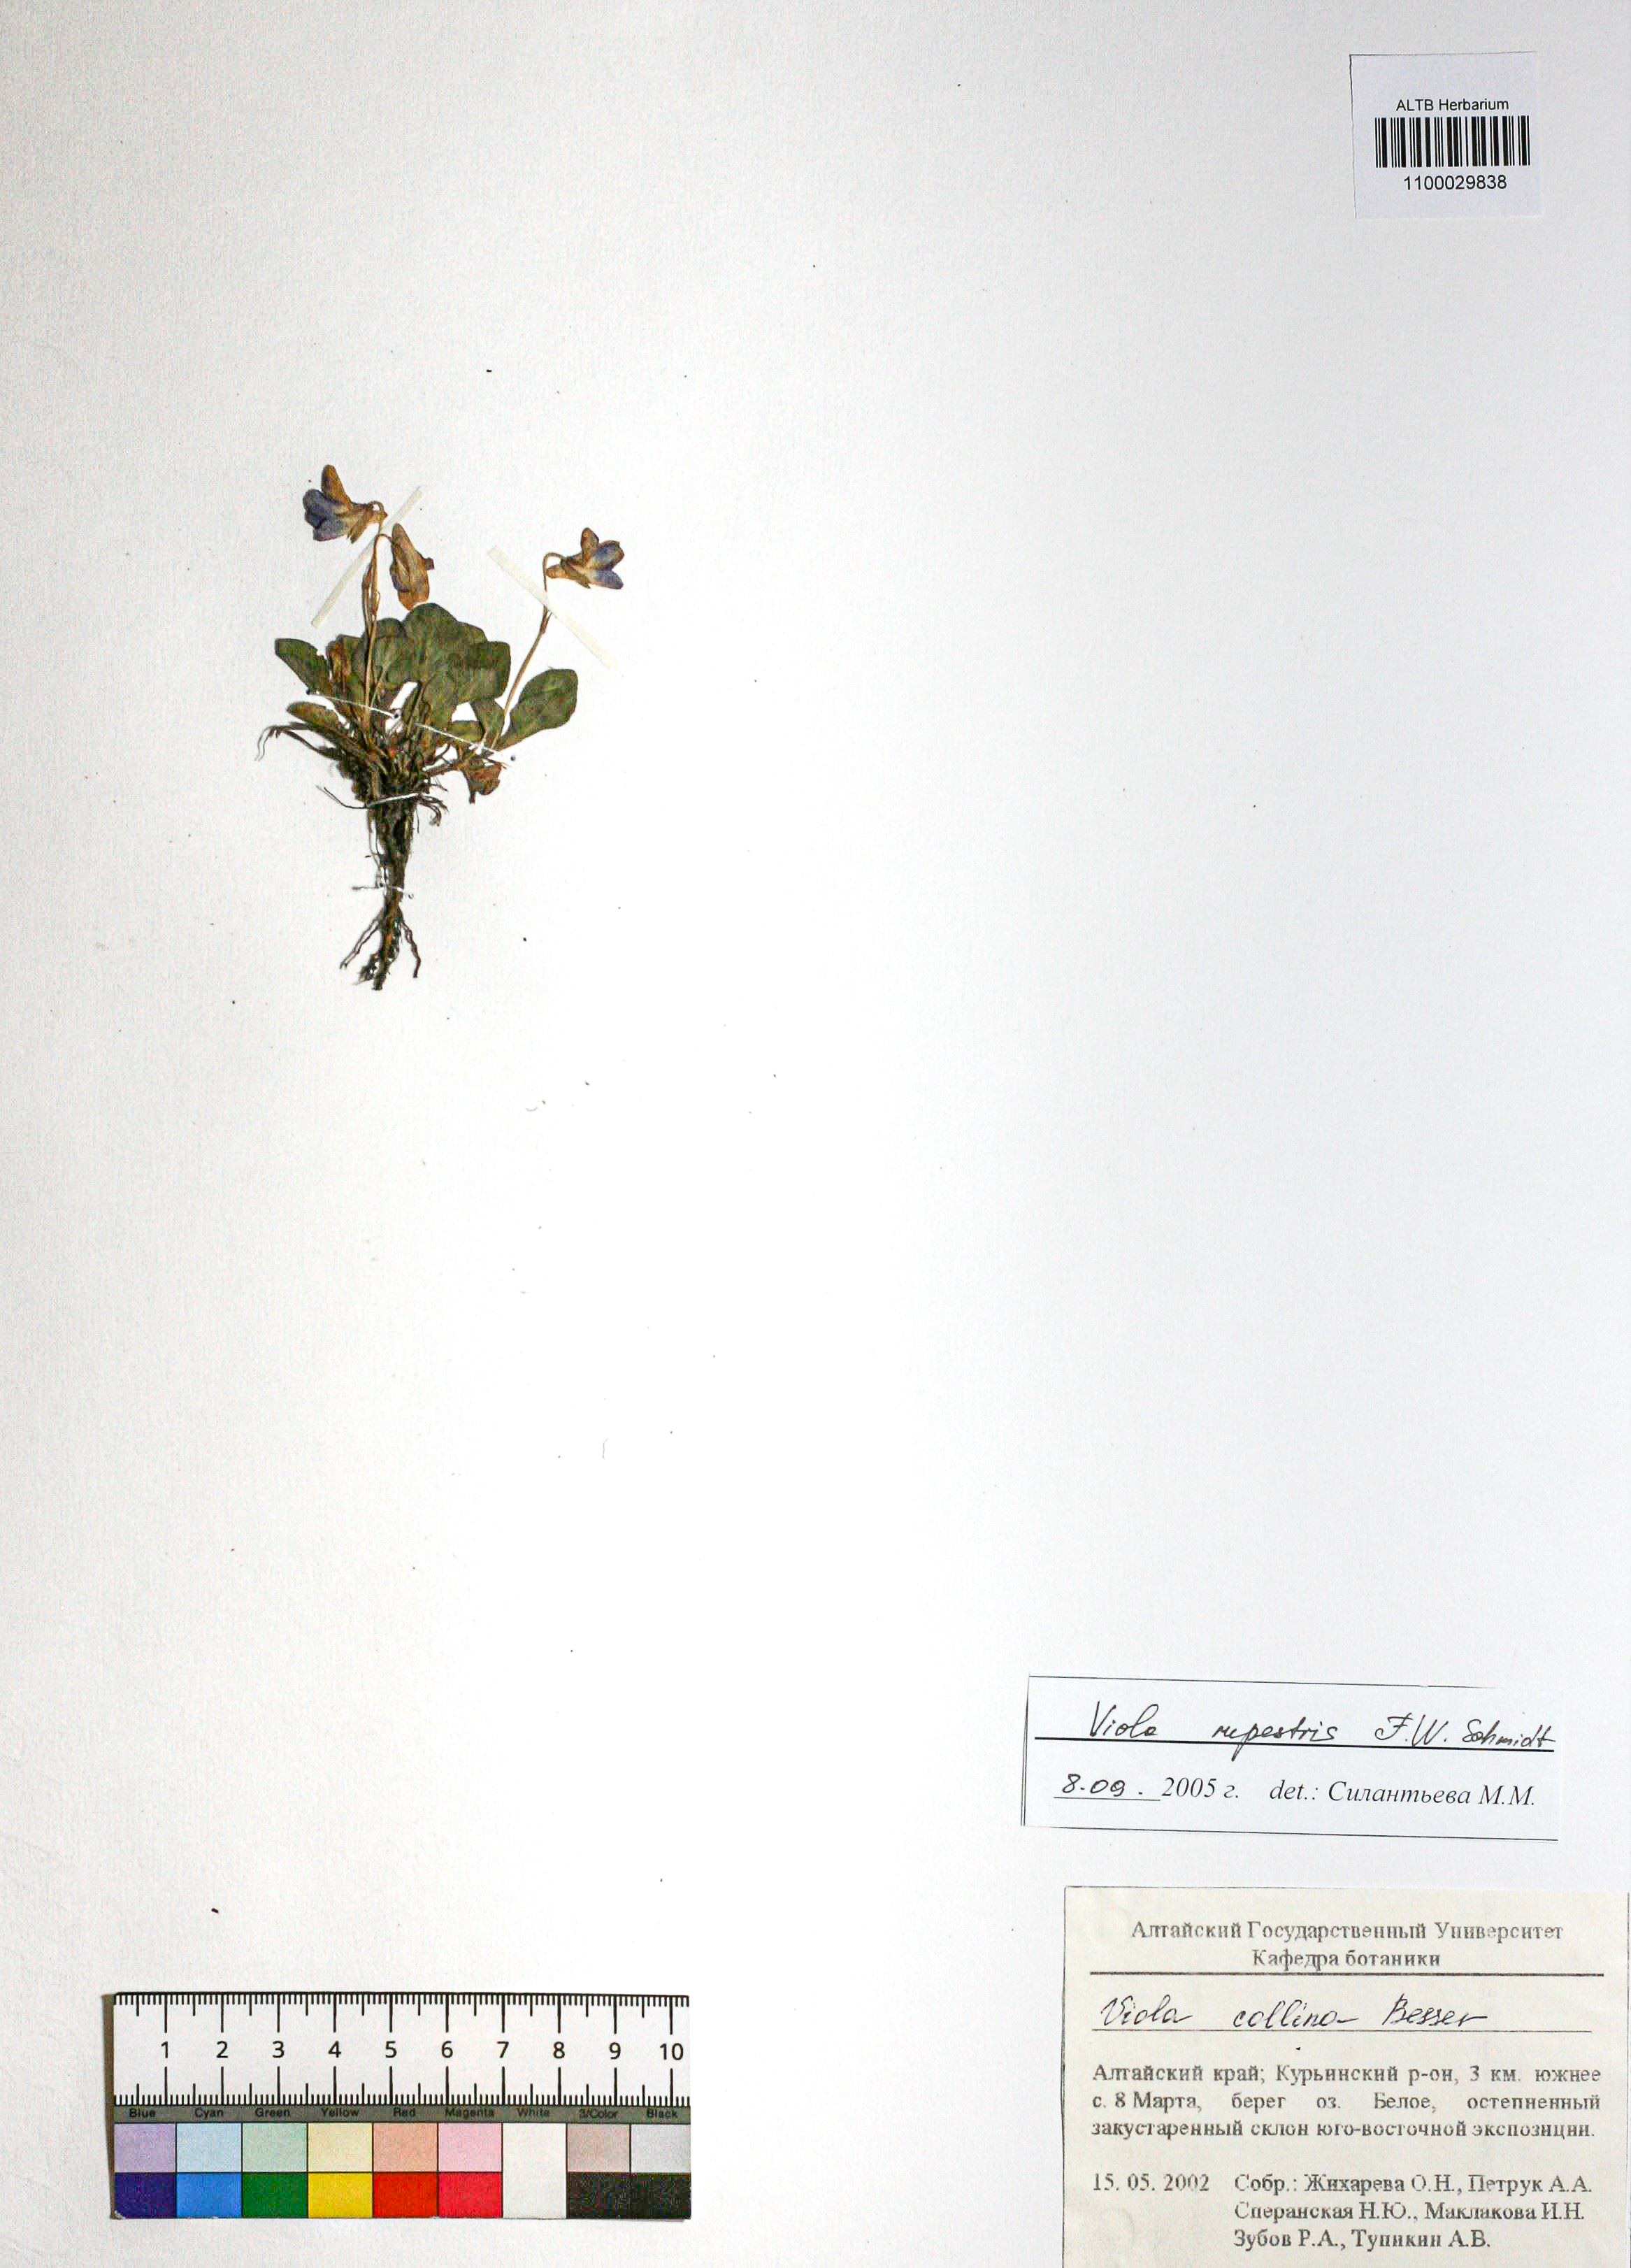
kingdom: Plantae
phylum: Tracheophyta
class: Magnoliopsida
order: Malpighiales
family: Violaceae
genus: Viola
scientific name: Viola rupestris
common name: Teesdale violet
